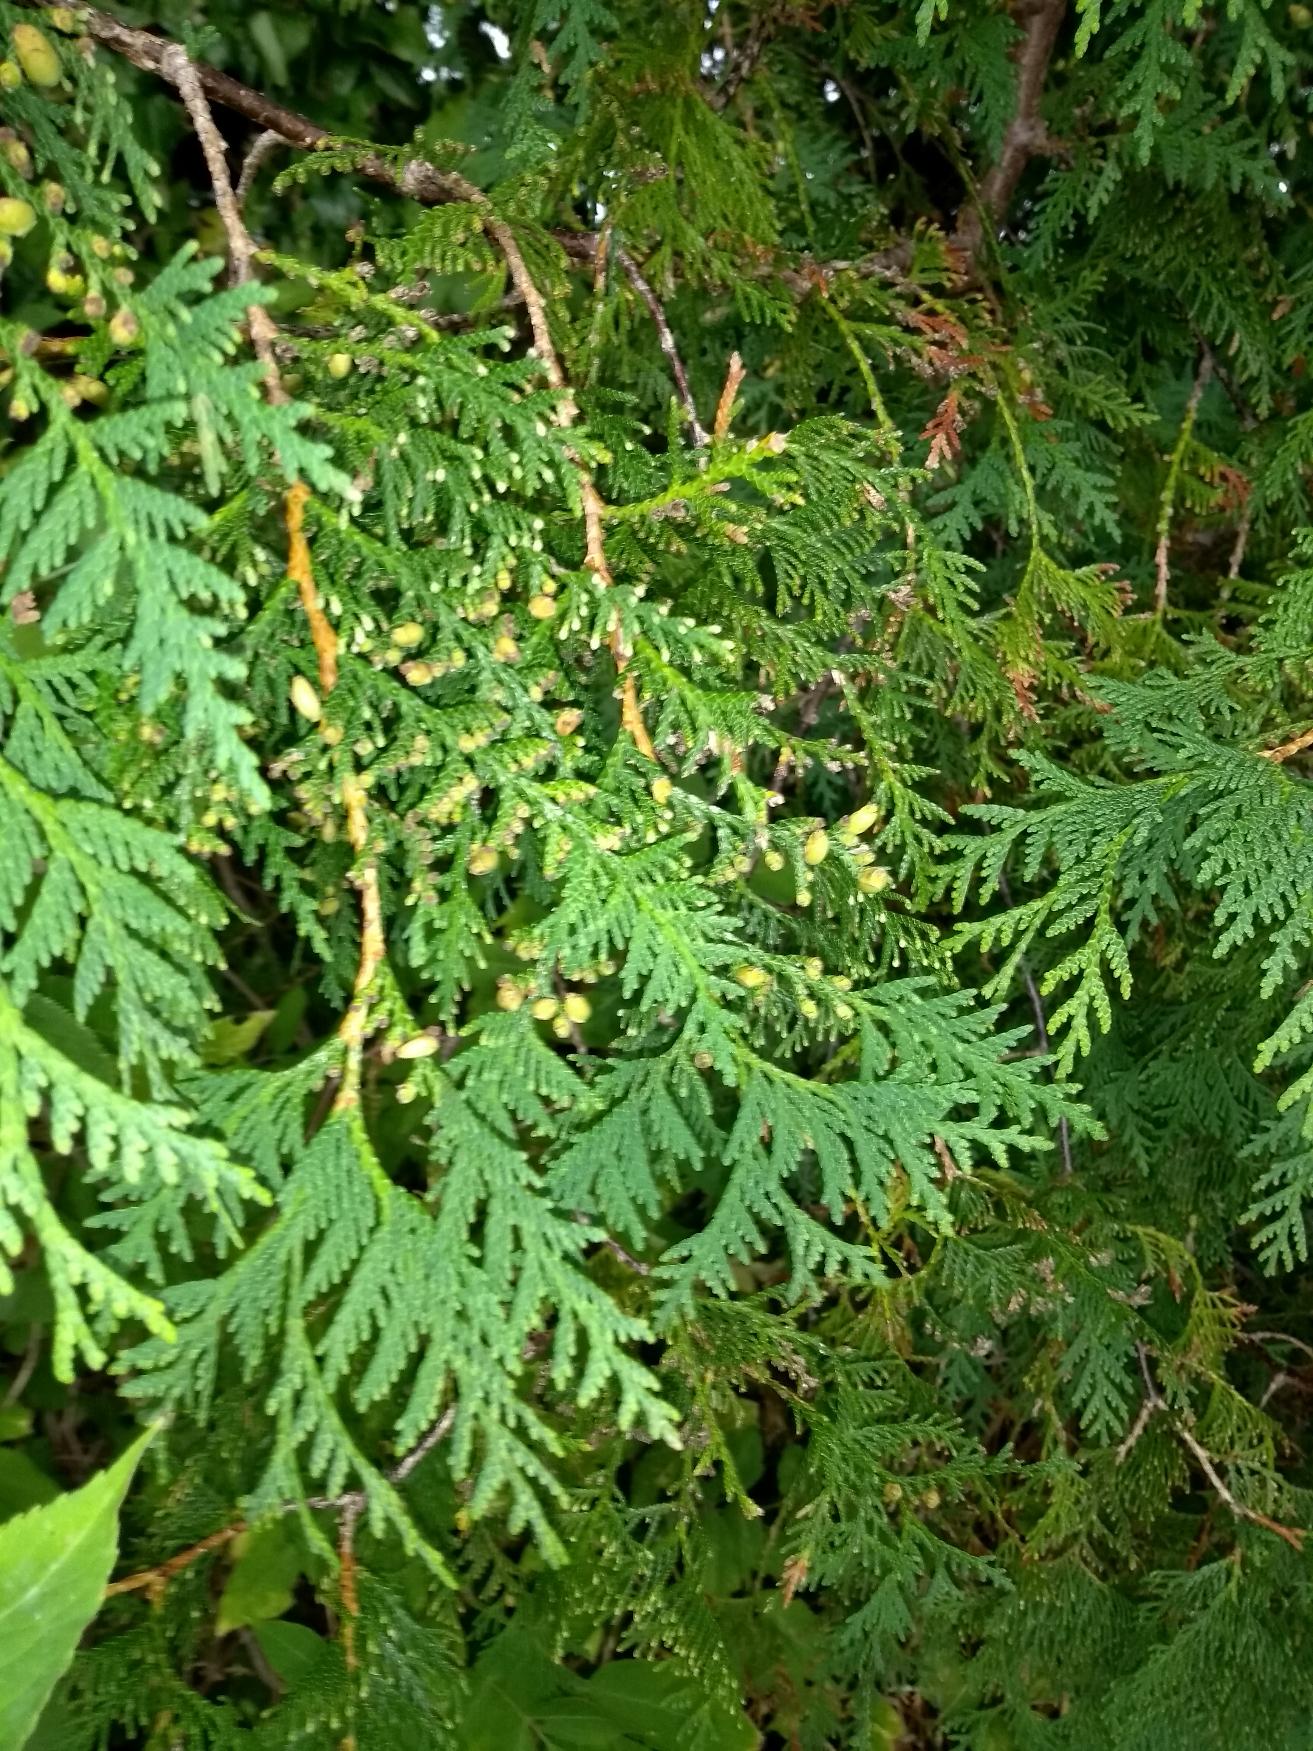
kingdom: Plantae
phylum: Tracheophyta
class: Pinopsida
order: Pinales
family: Cupressaceae
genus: Thuja
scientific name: Thuja plicata
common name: Kæmpe-thuja
